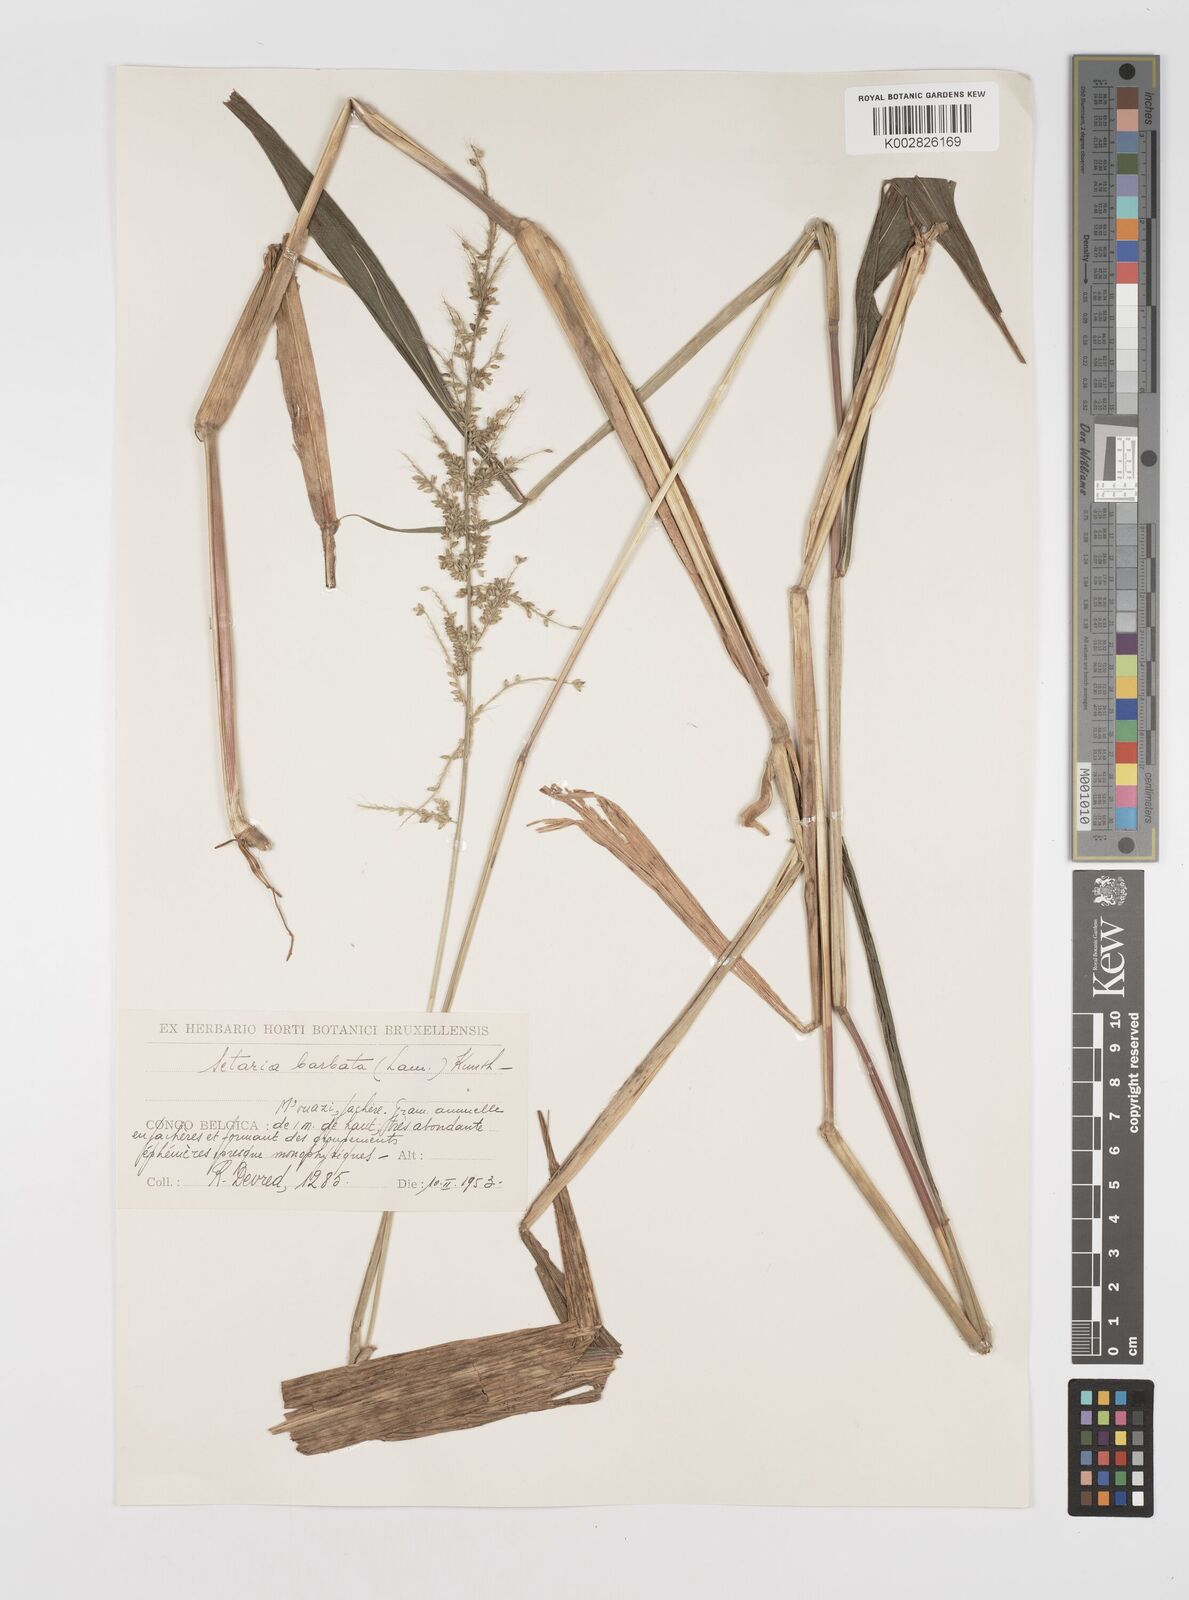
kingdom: Plantae
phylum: Tracheophyta
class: Liliopsida
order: Poales
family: Poaceae
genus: Setaria
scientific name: Setaria barbata
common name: East indian bristlegrass
